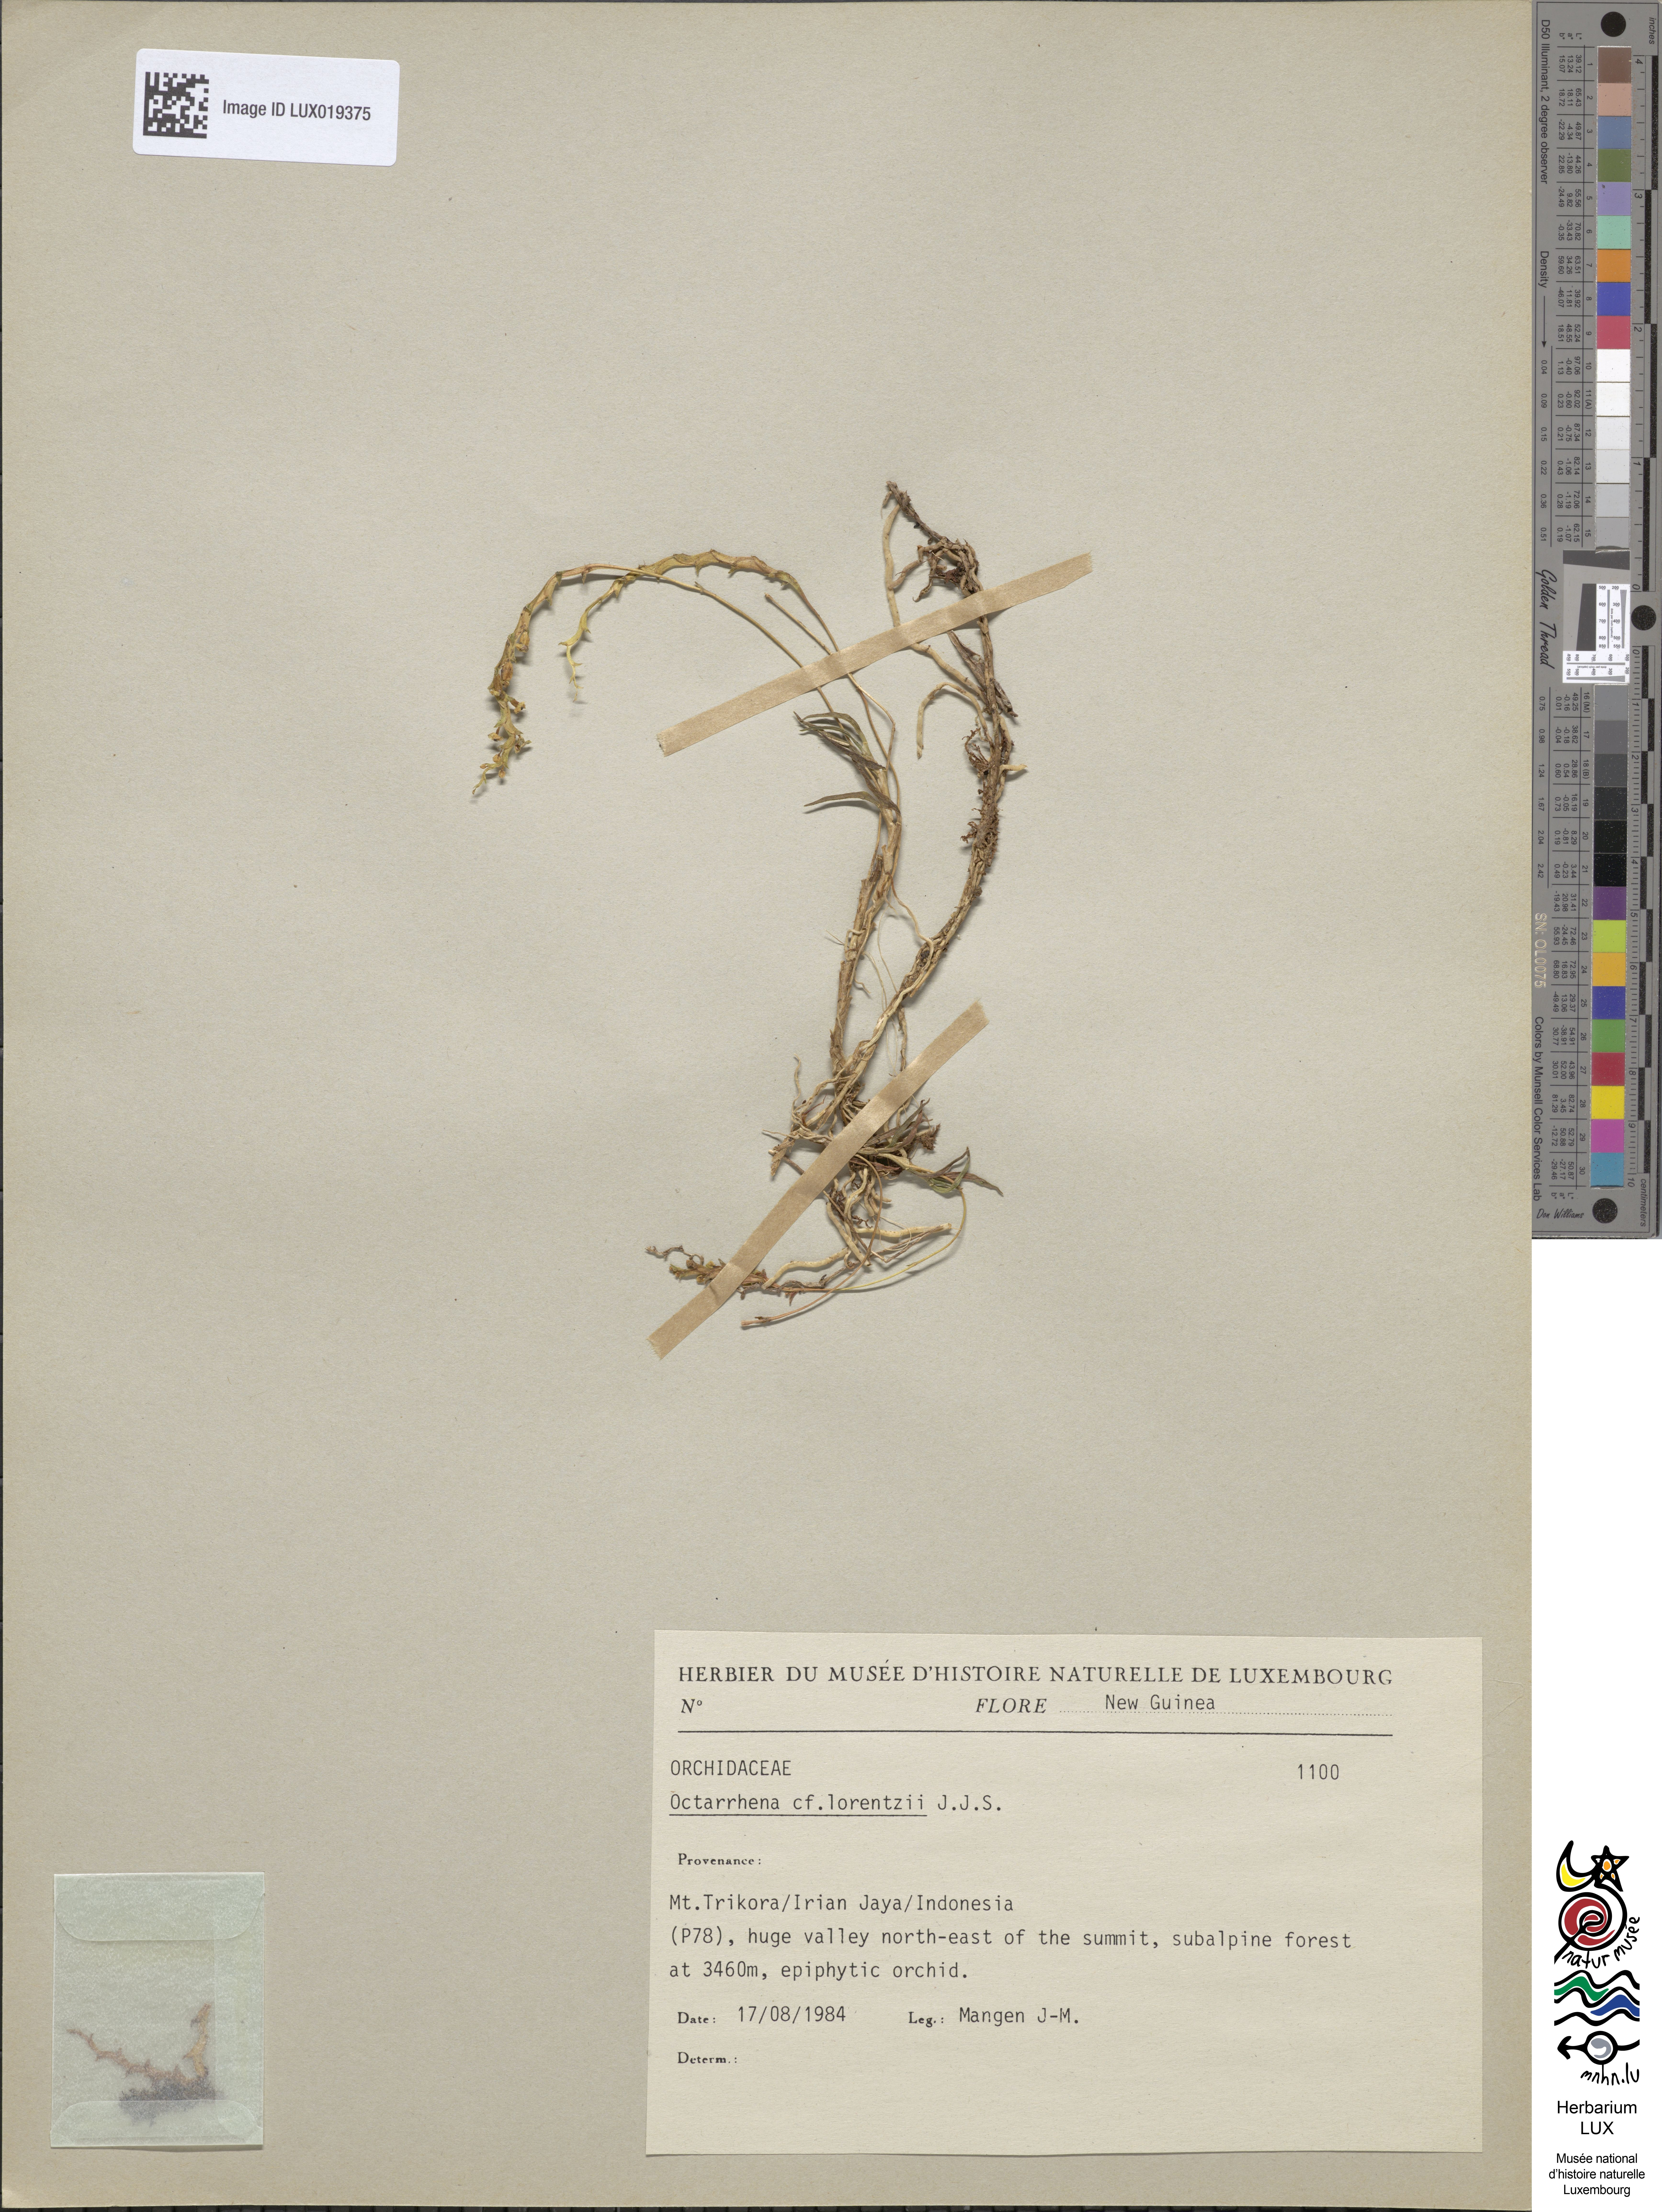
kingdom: Plantae
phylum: Tracheophyta
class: Magnoliopsida
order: Oxalidales
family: Elaeocarpaceae
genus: Sericolea
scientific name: Sericolea
